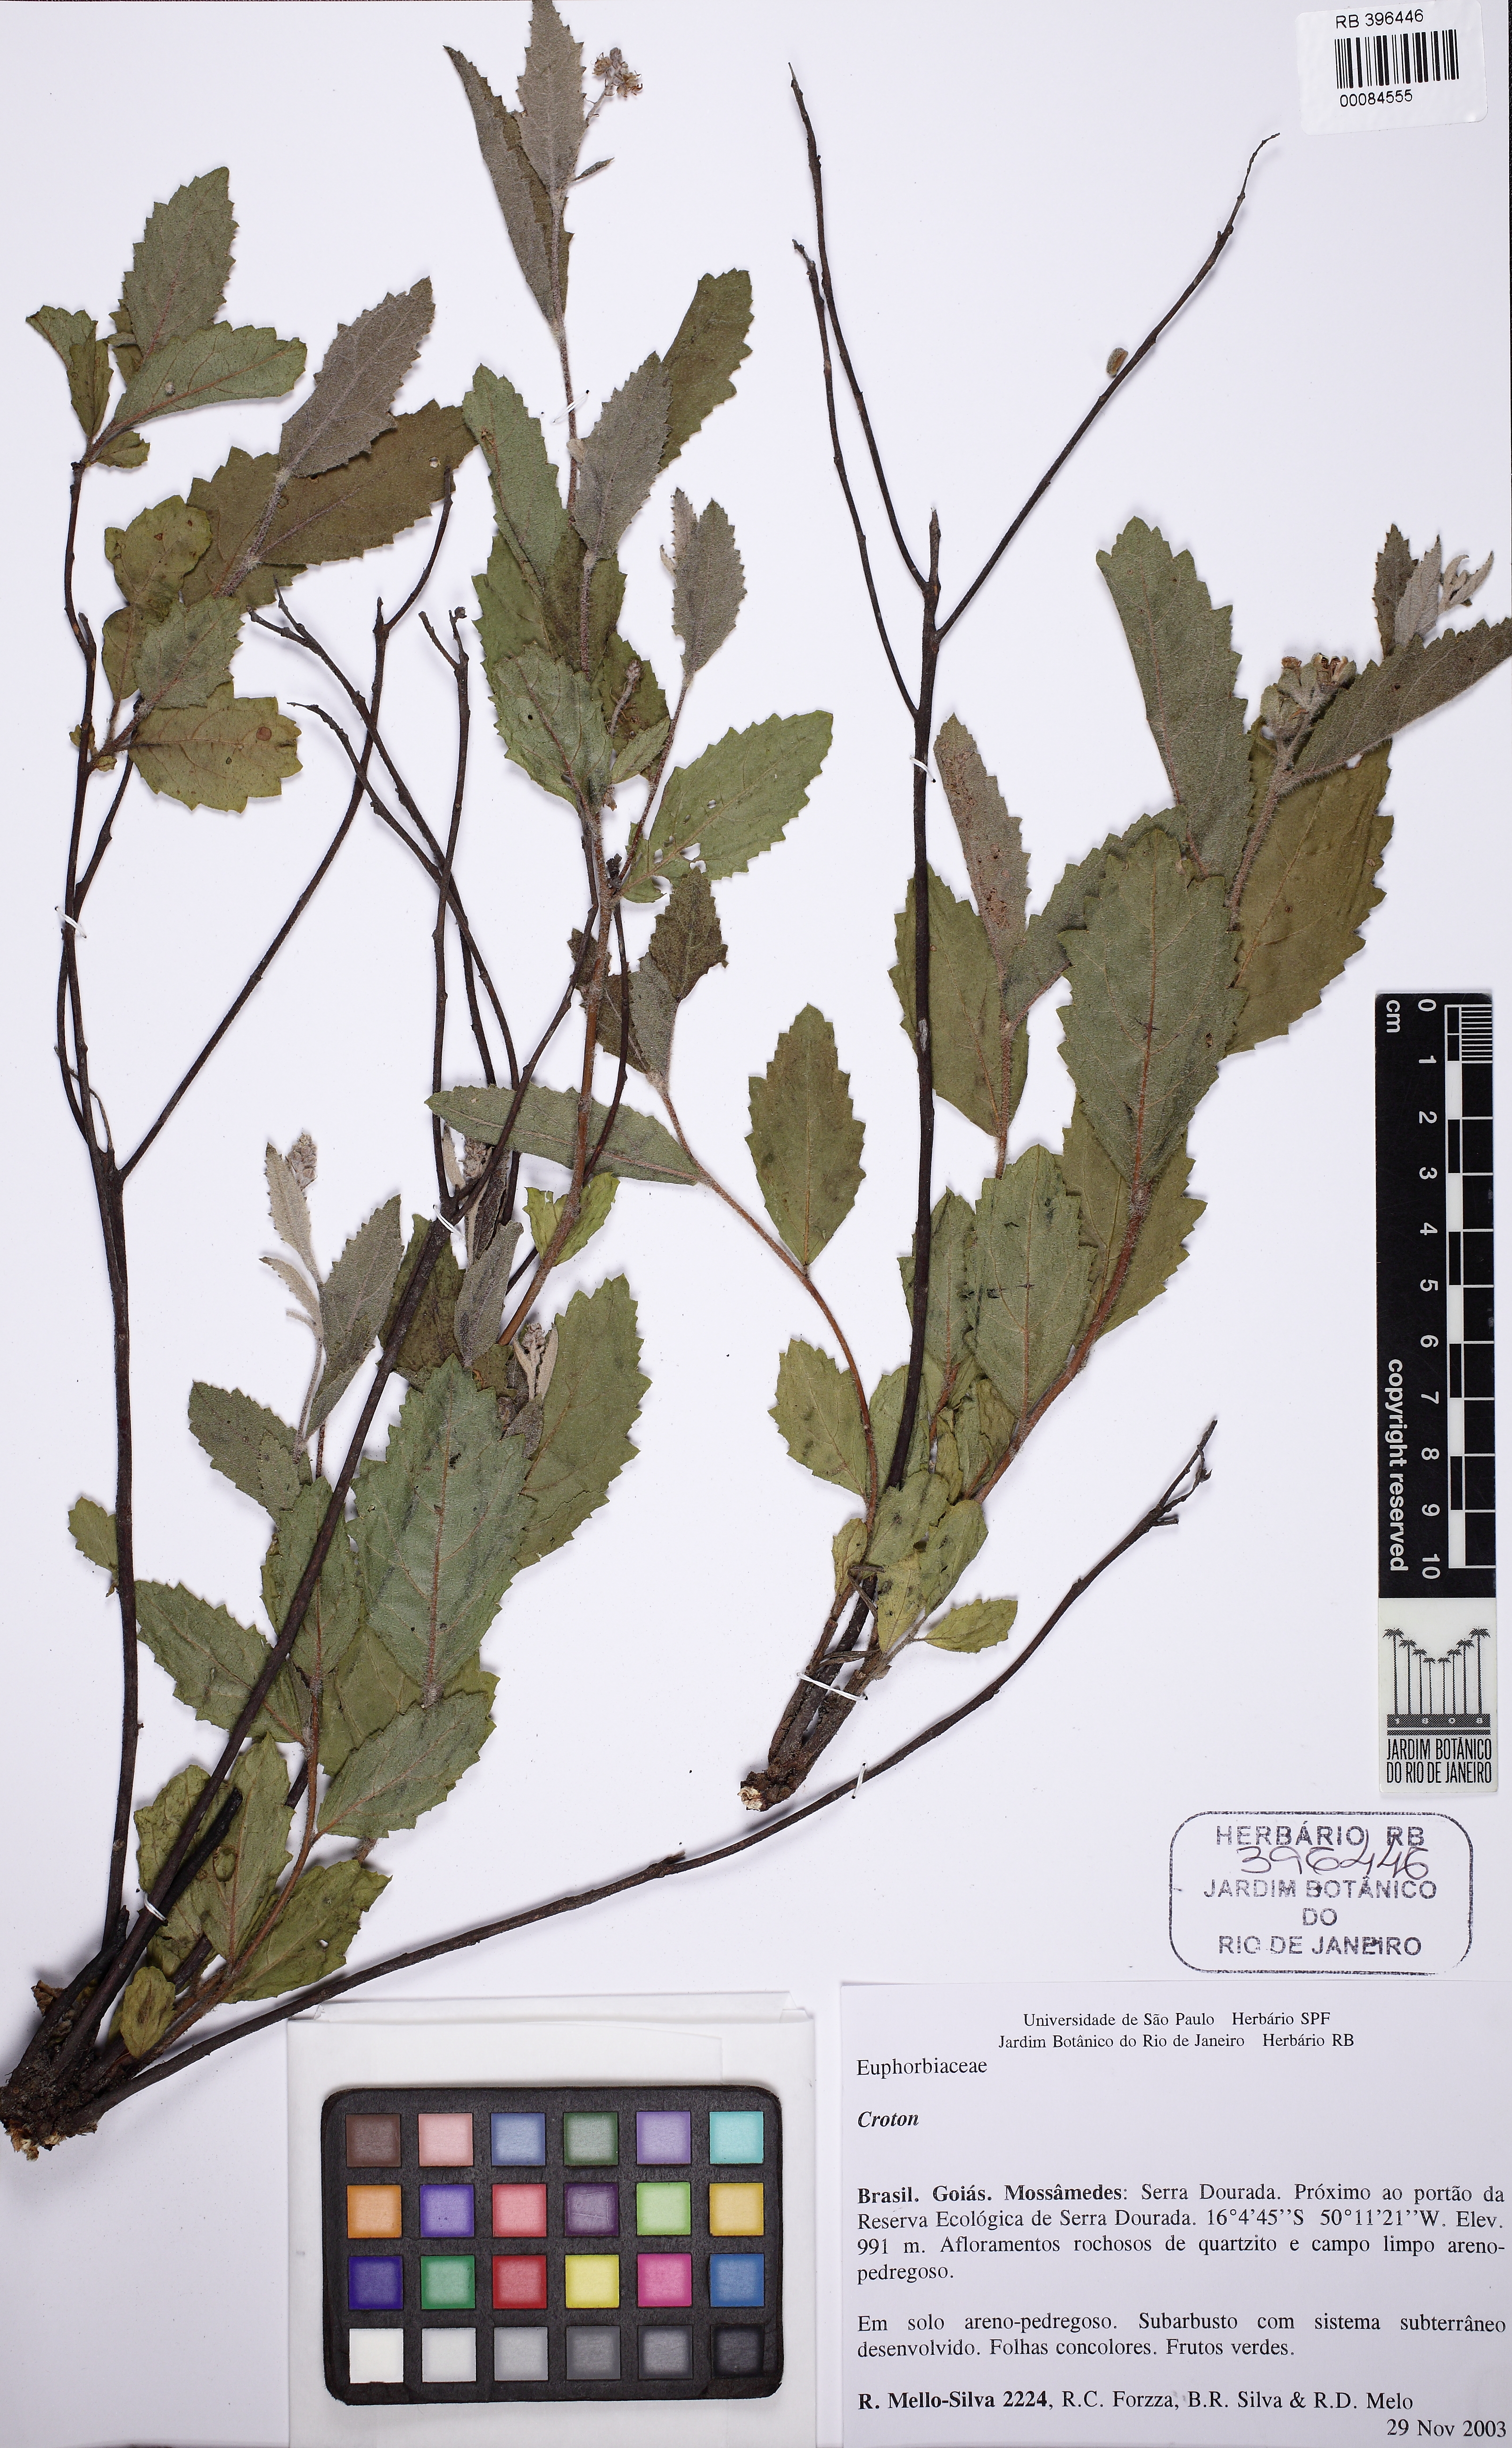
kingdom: Plantae
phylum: Tracheophyta
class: Magnoliopsida
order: Malpighiales
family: Euphorbiaceae
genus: Croton
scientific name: Croton planaltoanus
